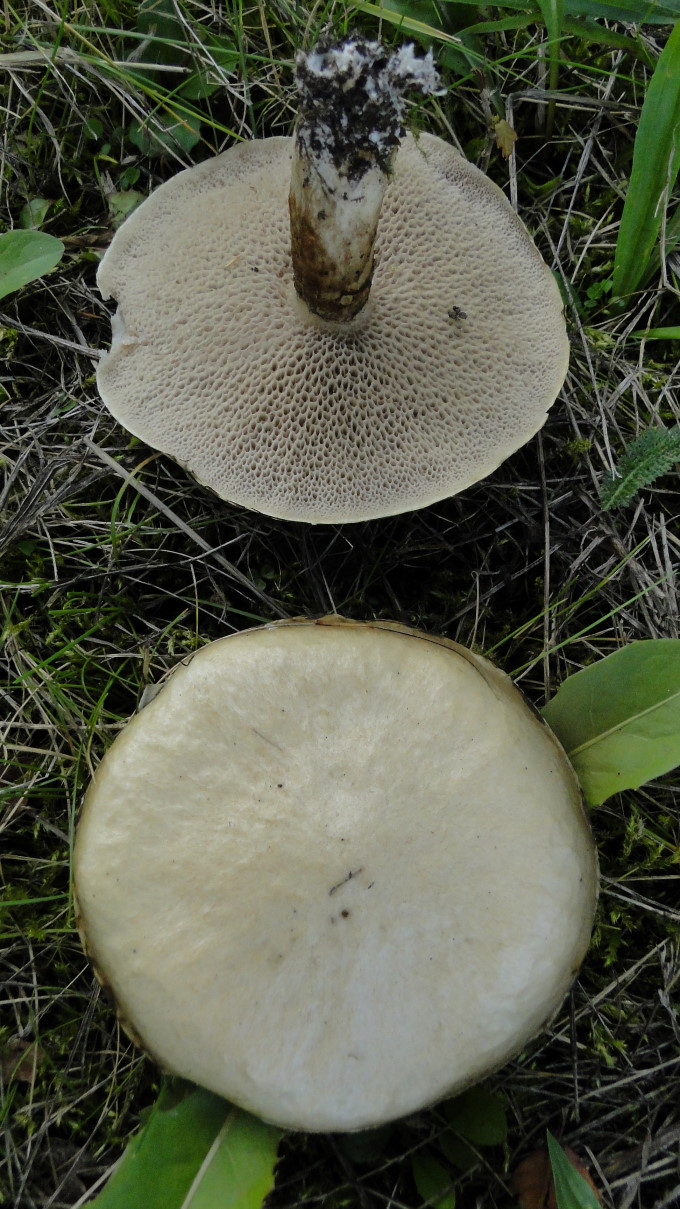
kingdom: Fungi
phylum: Basidiomycota
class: Agaricomycetes
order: Boletales
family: Suillaceae
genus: Suillus
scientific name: Suillus viscidus
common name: olivengrå slimrørhat
